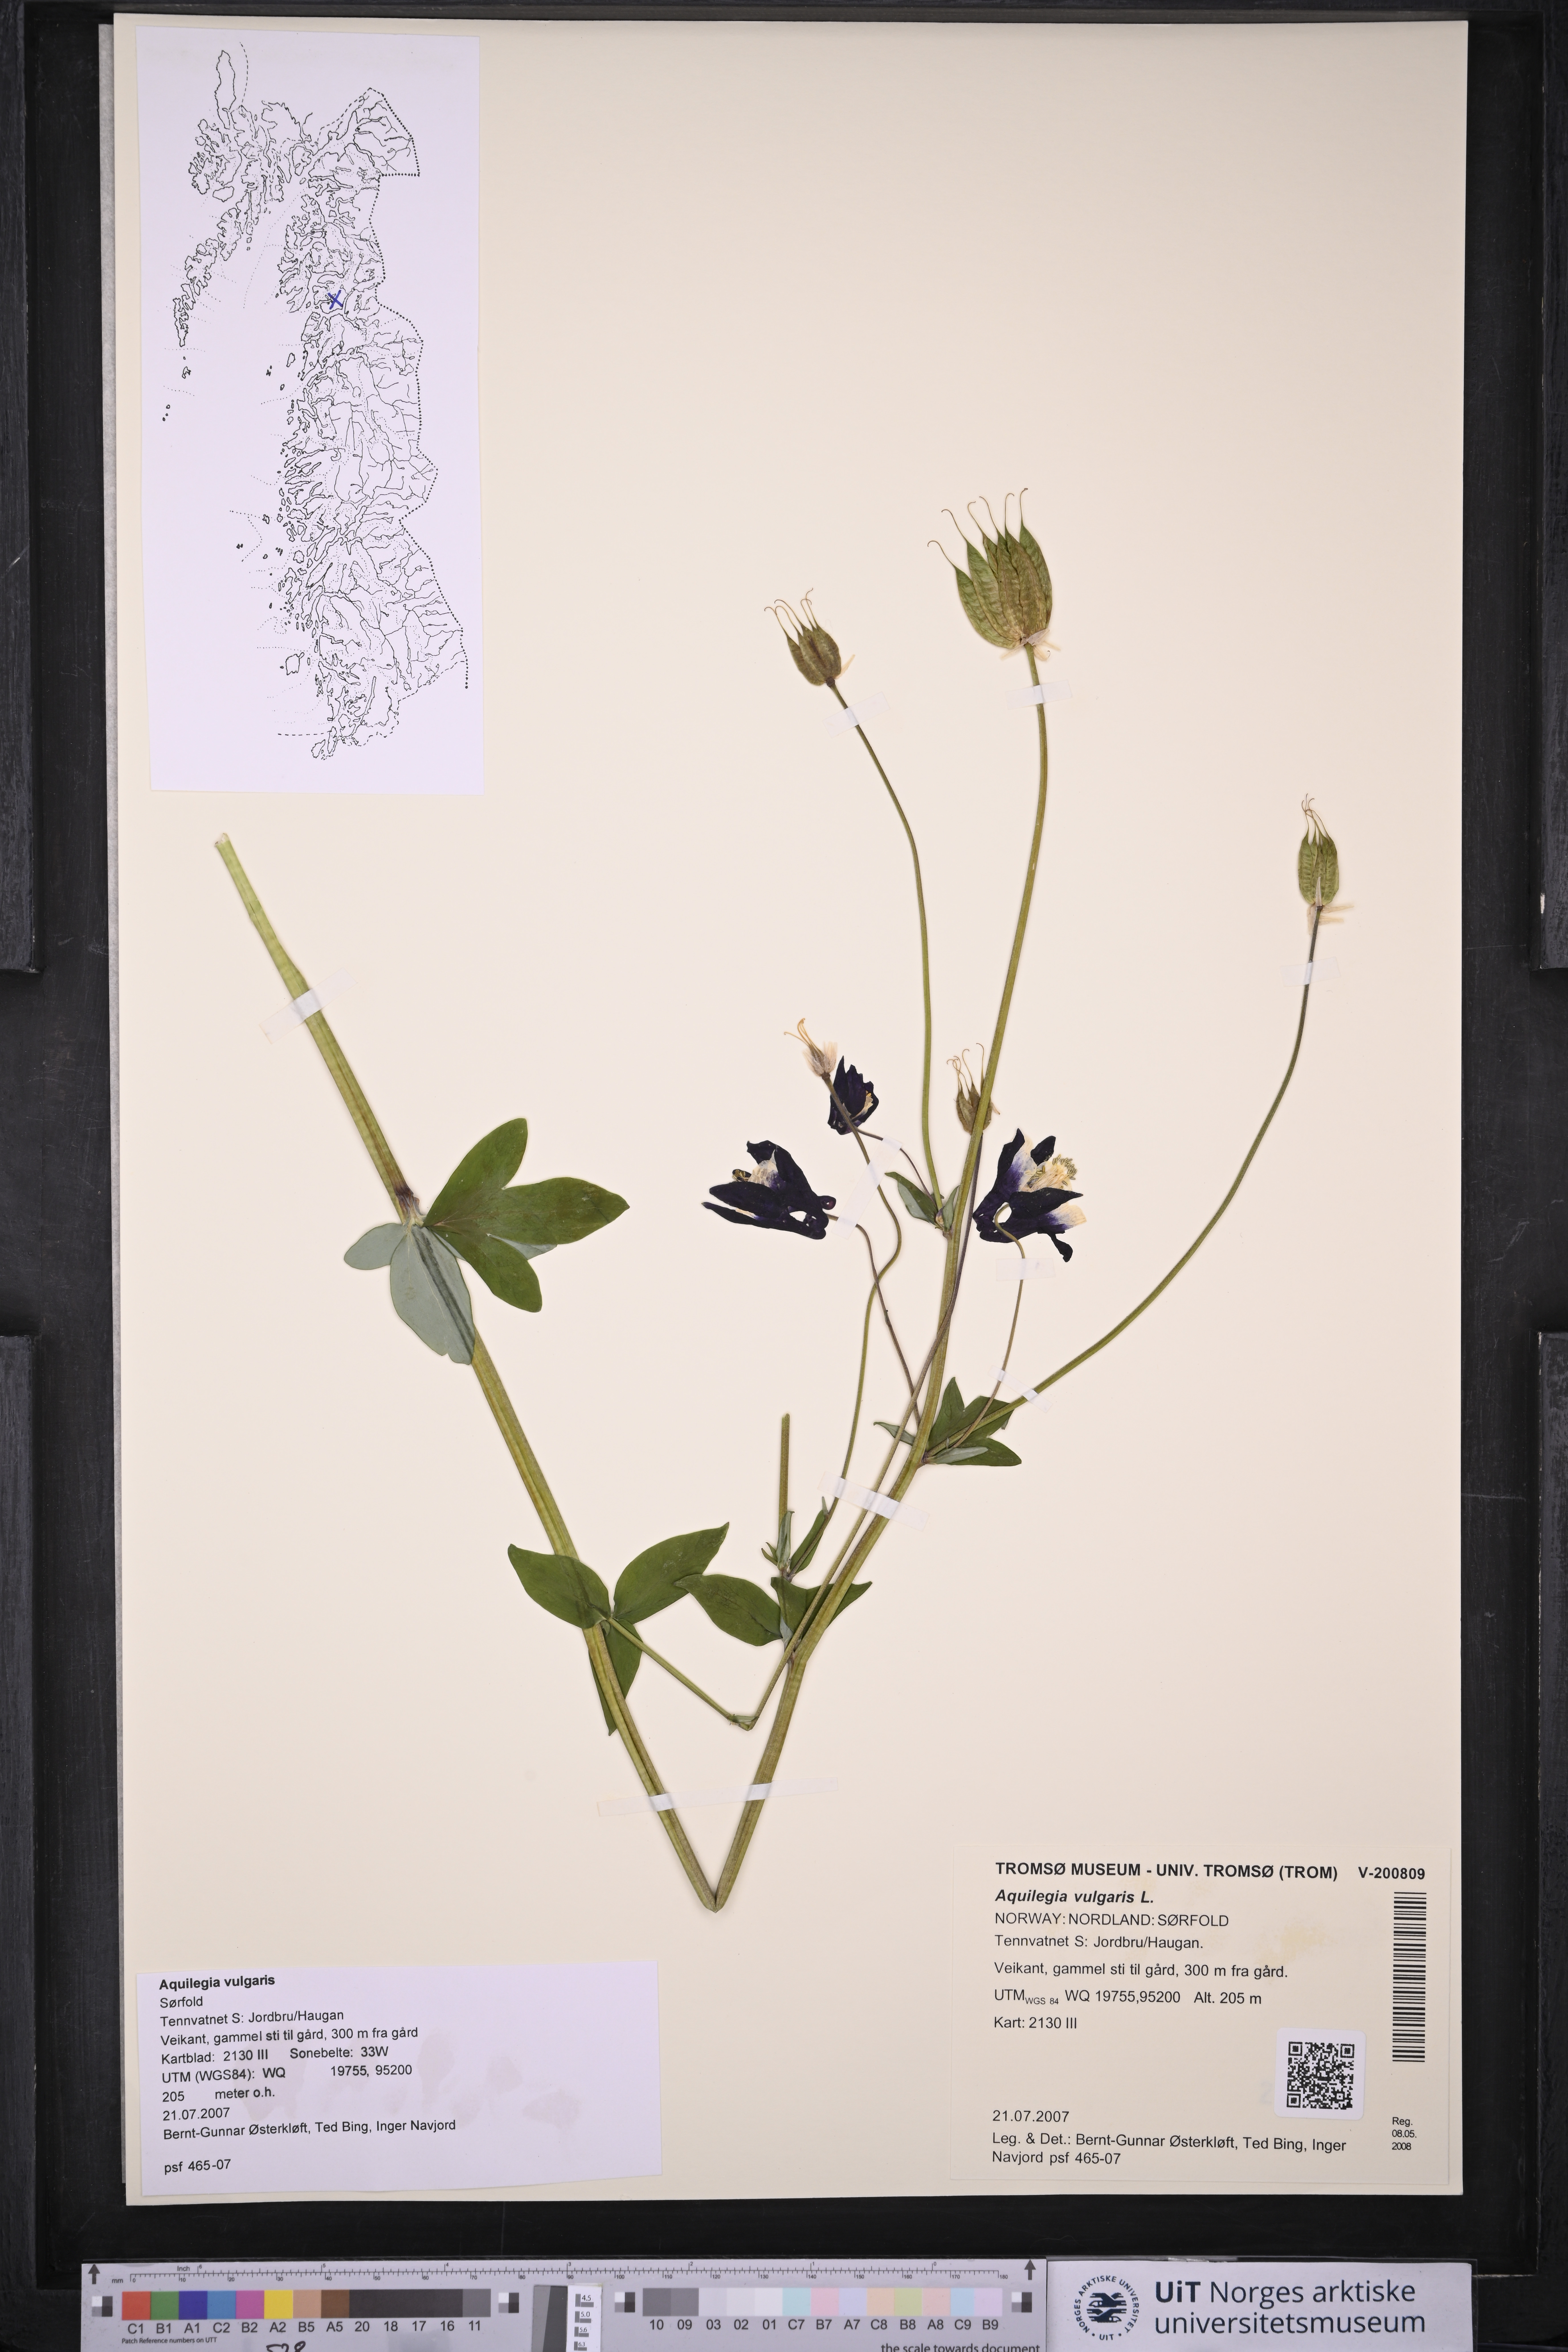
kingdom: Plantae
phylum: Tracheophyta
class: Magnoliopsida
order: Ranunculales
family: Ranunculaceae
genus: Aquilegia
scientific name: Aquilegia vulgaris
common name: Columbine
